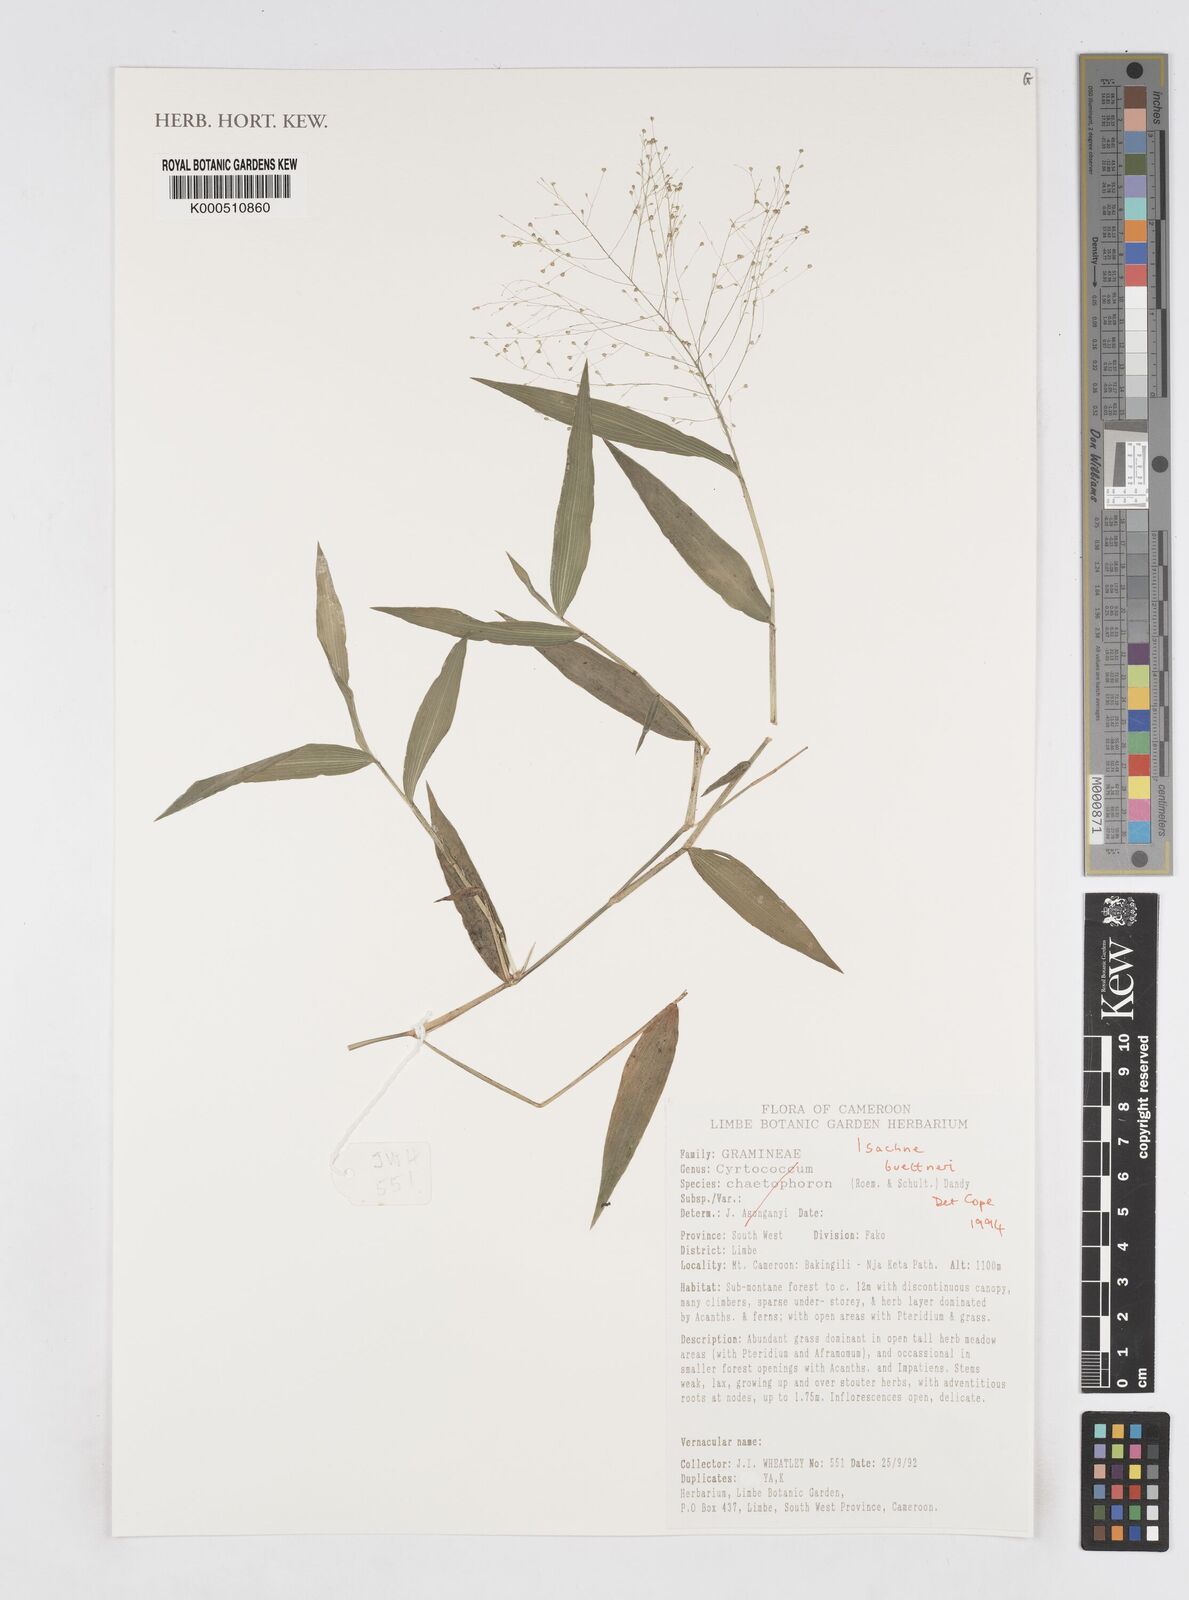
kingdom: Plantae
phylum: Tracheophyta
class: Liliopsida
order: Poales
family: Poaceae
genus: Isachne
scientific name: Isachne albens
